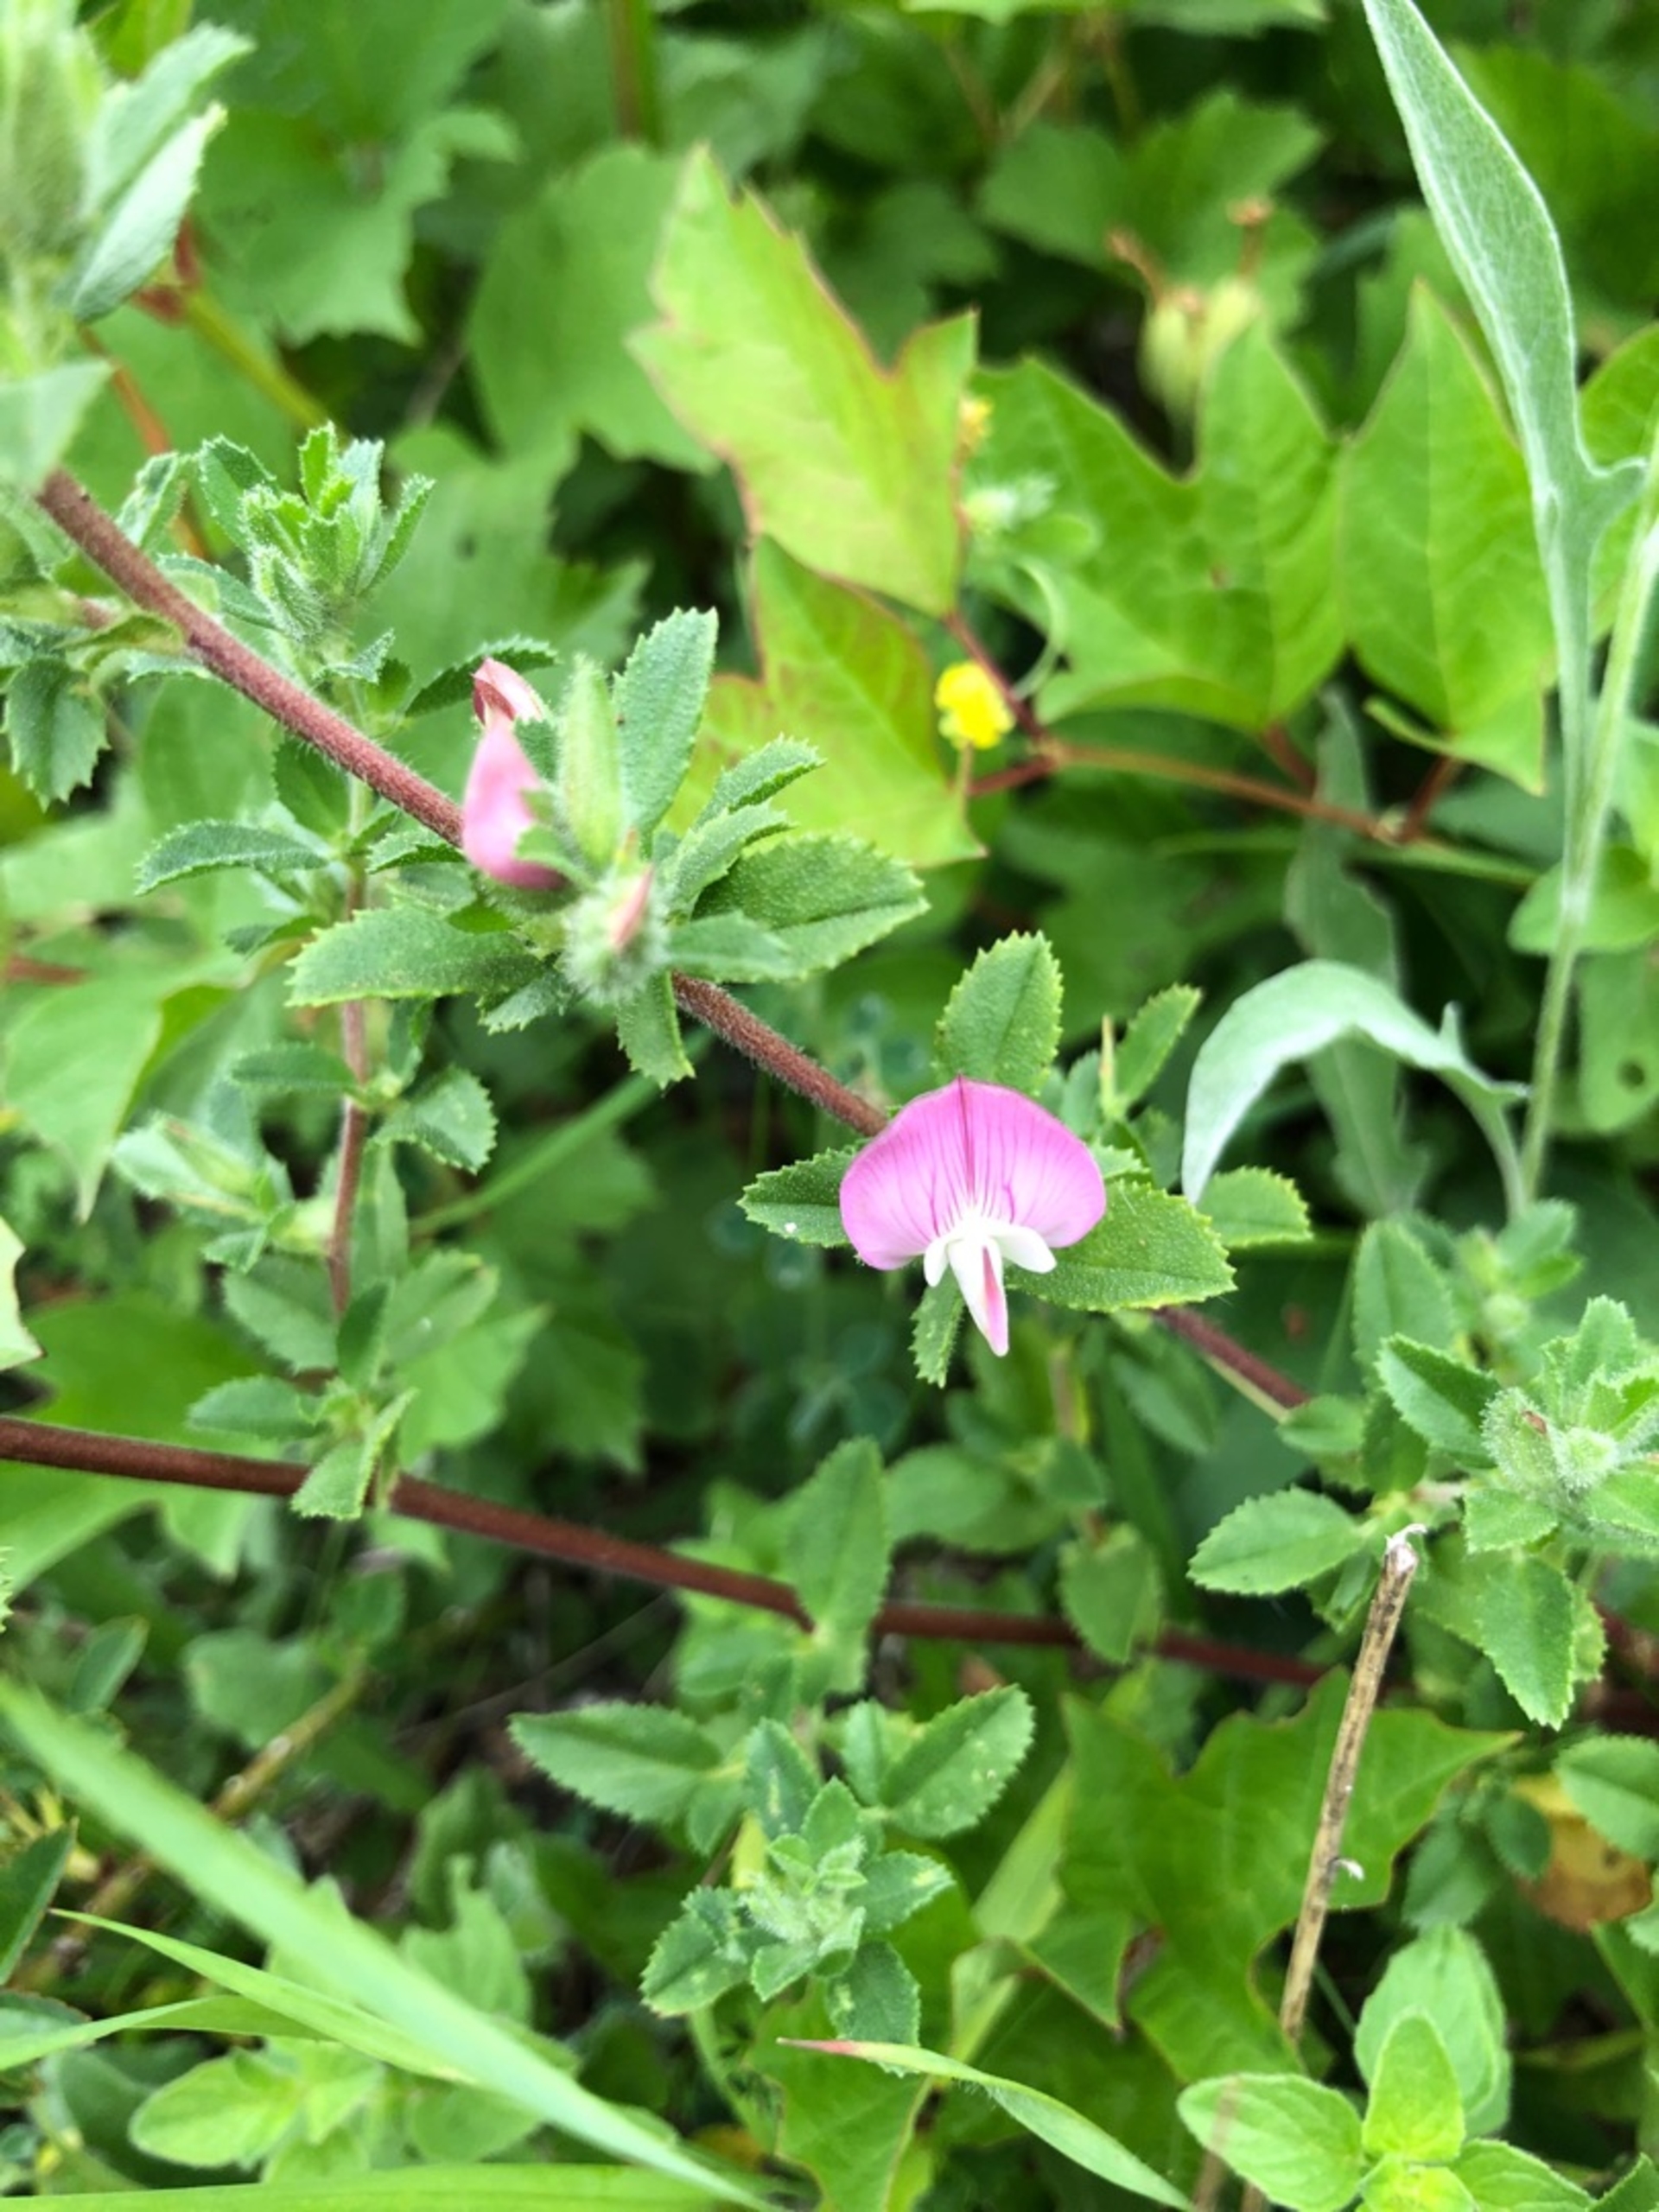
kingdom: Plantae
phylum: Tracheophyta
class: Magnoliopsida
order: Fabales
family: Fabaceae
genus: Ononis
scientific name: Ononis spinosa
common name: Krageklo
